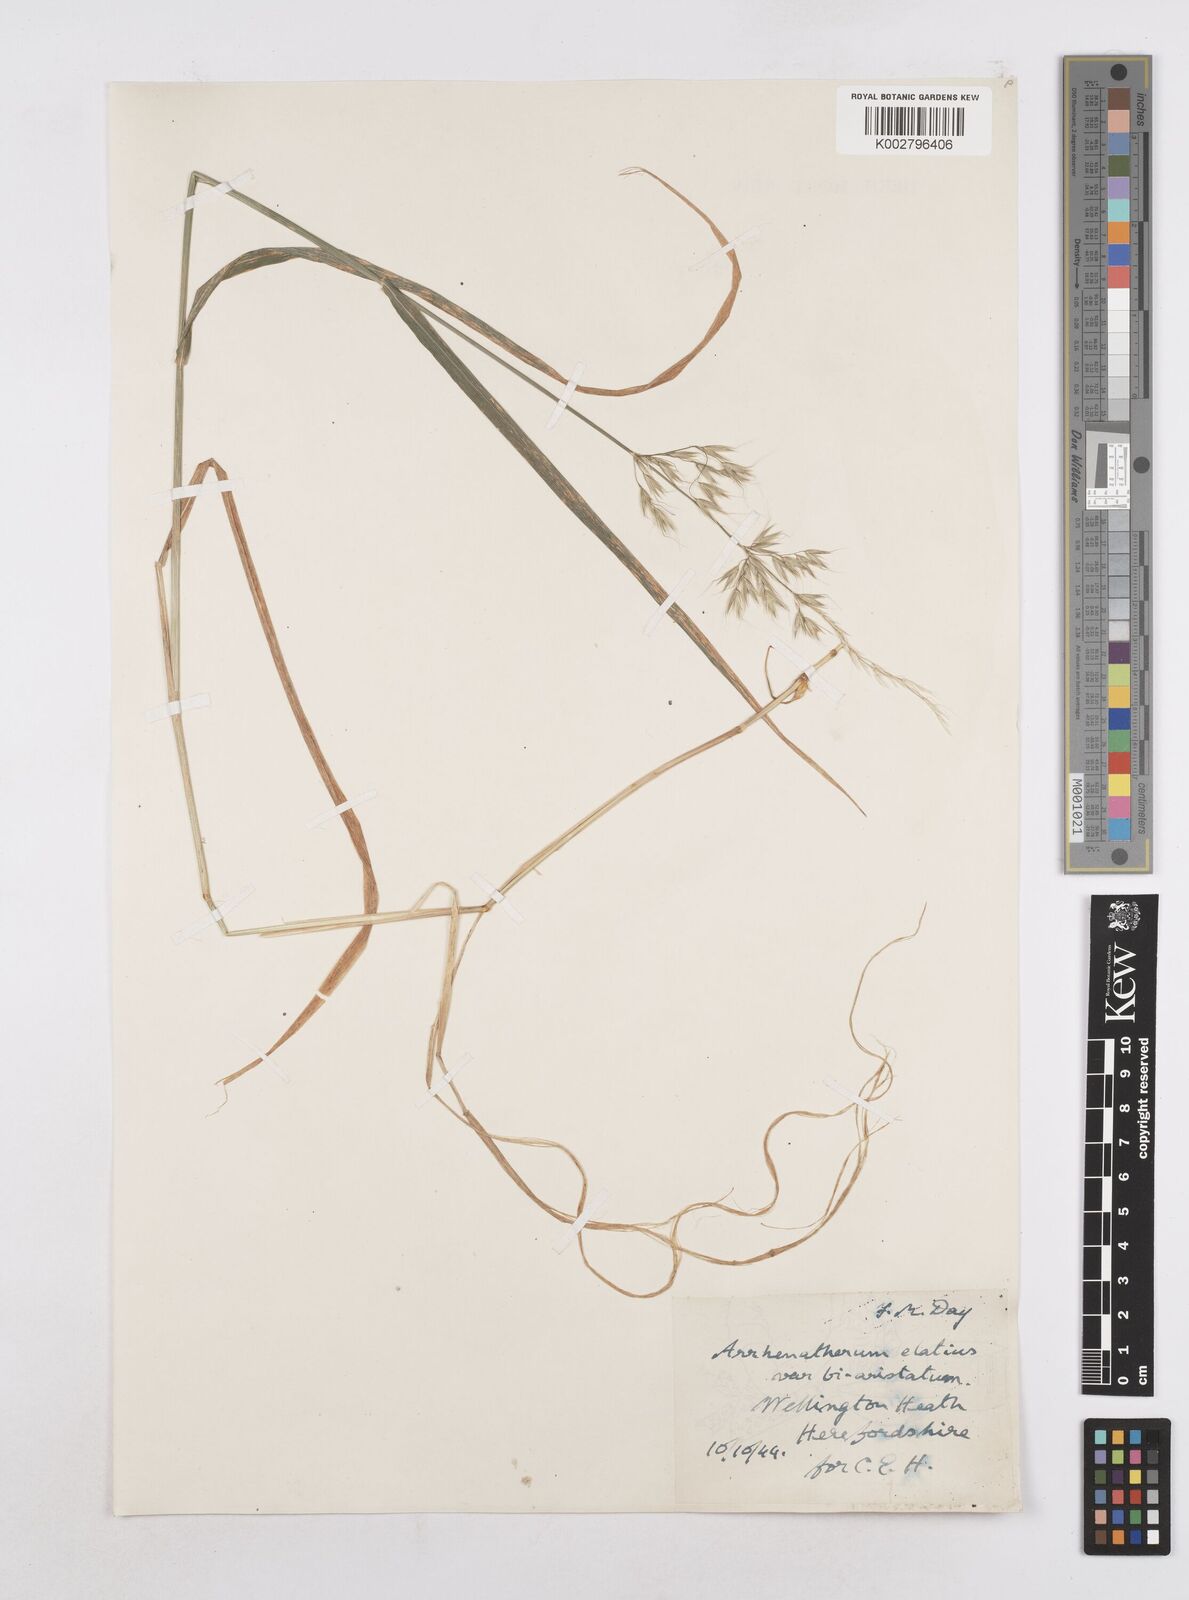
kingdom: Plantae
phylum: Tracheophyta
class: Liliopsida
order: Poales
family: Poaceae
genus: Arrhenatherum
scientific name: Arrhenatherum elatius
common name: Tall oatgrass
